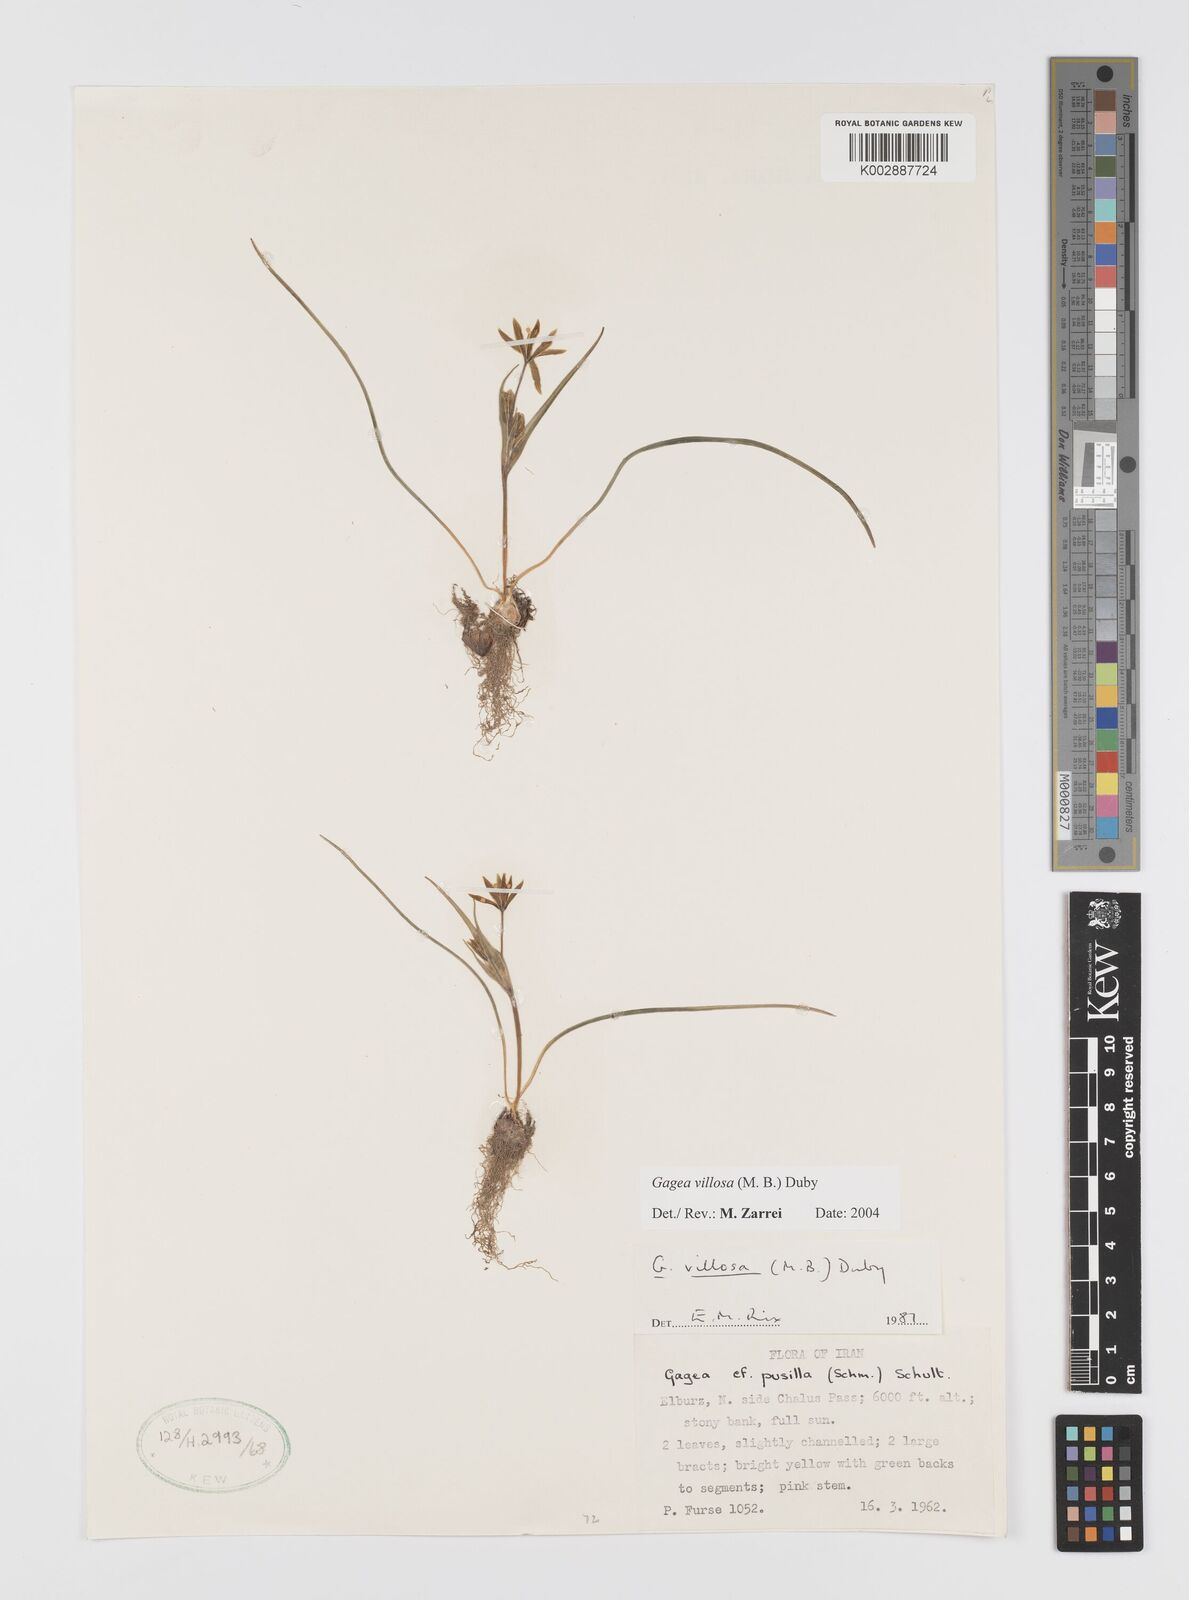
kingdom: Plantae
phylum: Tracheophyta
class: Liliopsida
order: Liliales
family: Liliaceae
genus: Gagea
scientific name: Gagea villosa
